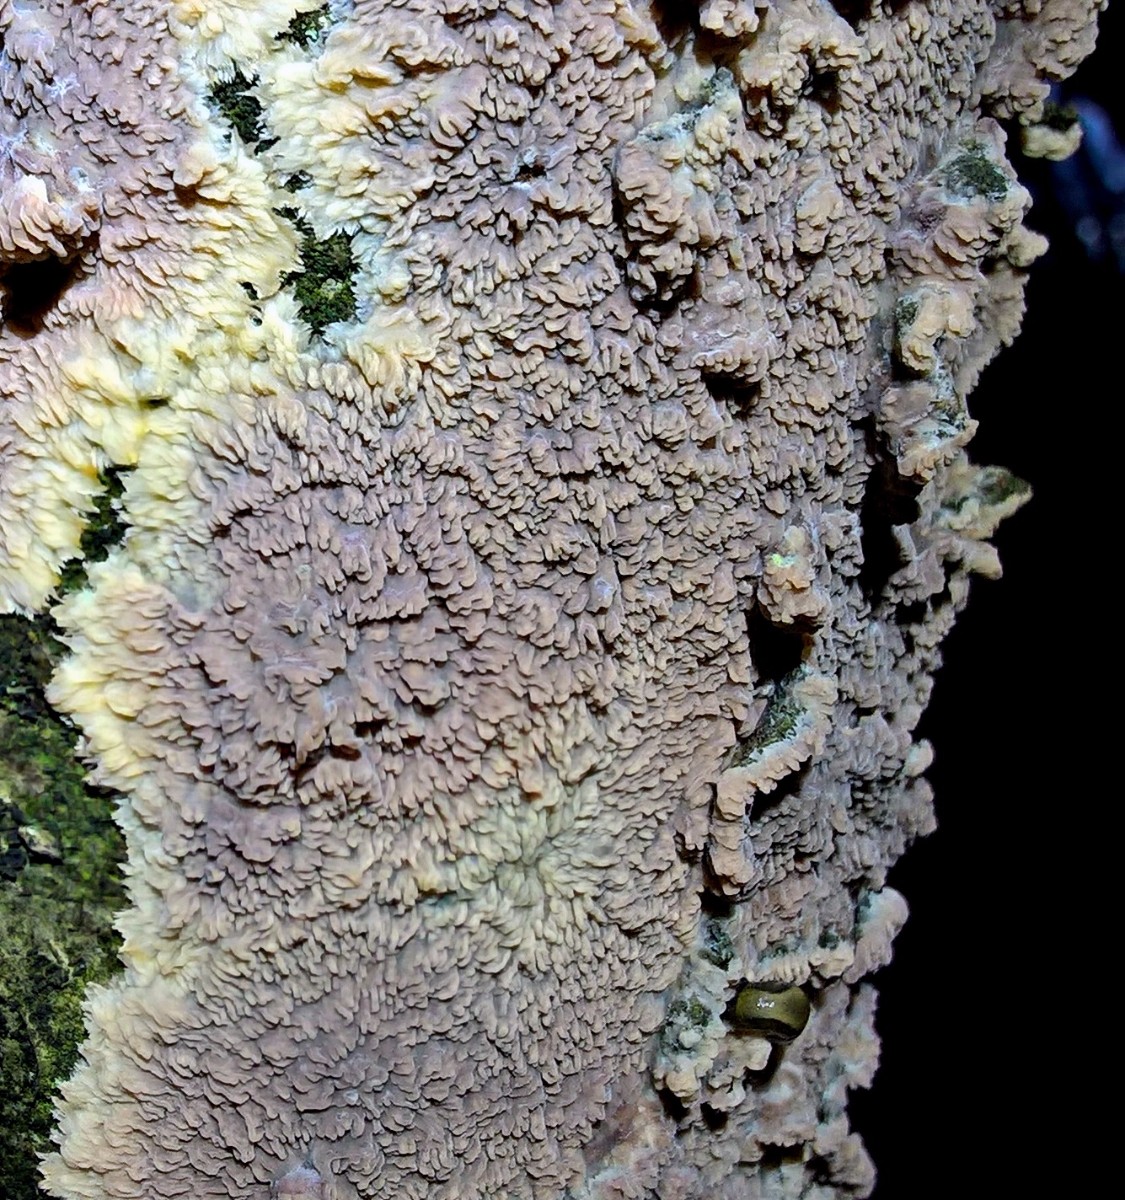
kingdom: Fungi
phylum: Basidiomycota
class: Agaricomycetes
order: Polyporales
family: Meruliaceae
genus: Phlebia
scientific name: Phlebia radiata
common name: stråle-åresvamp
